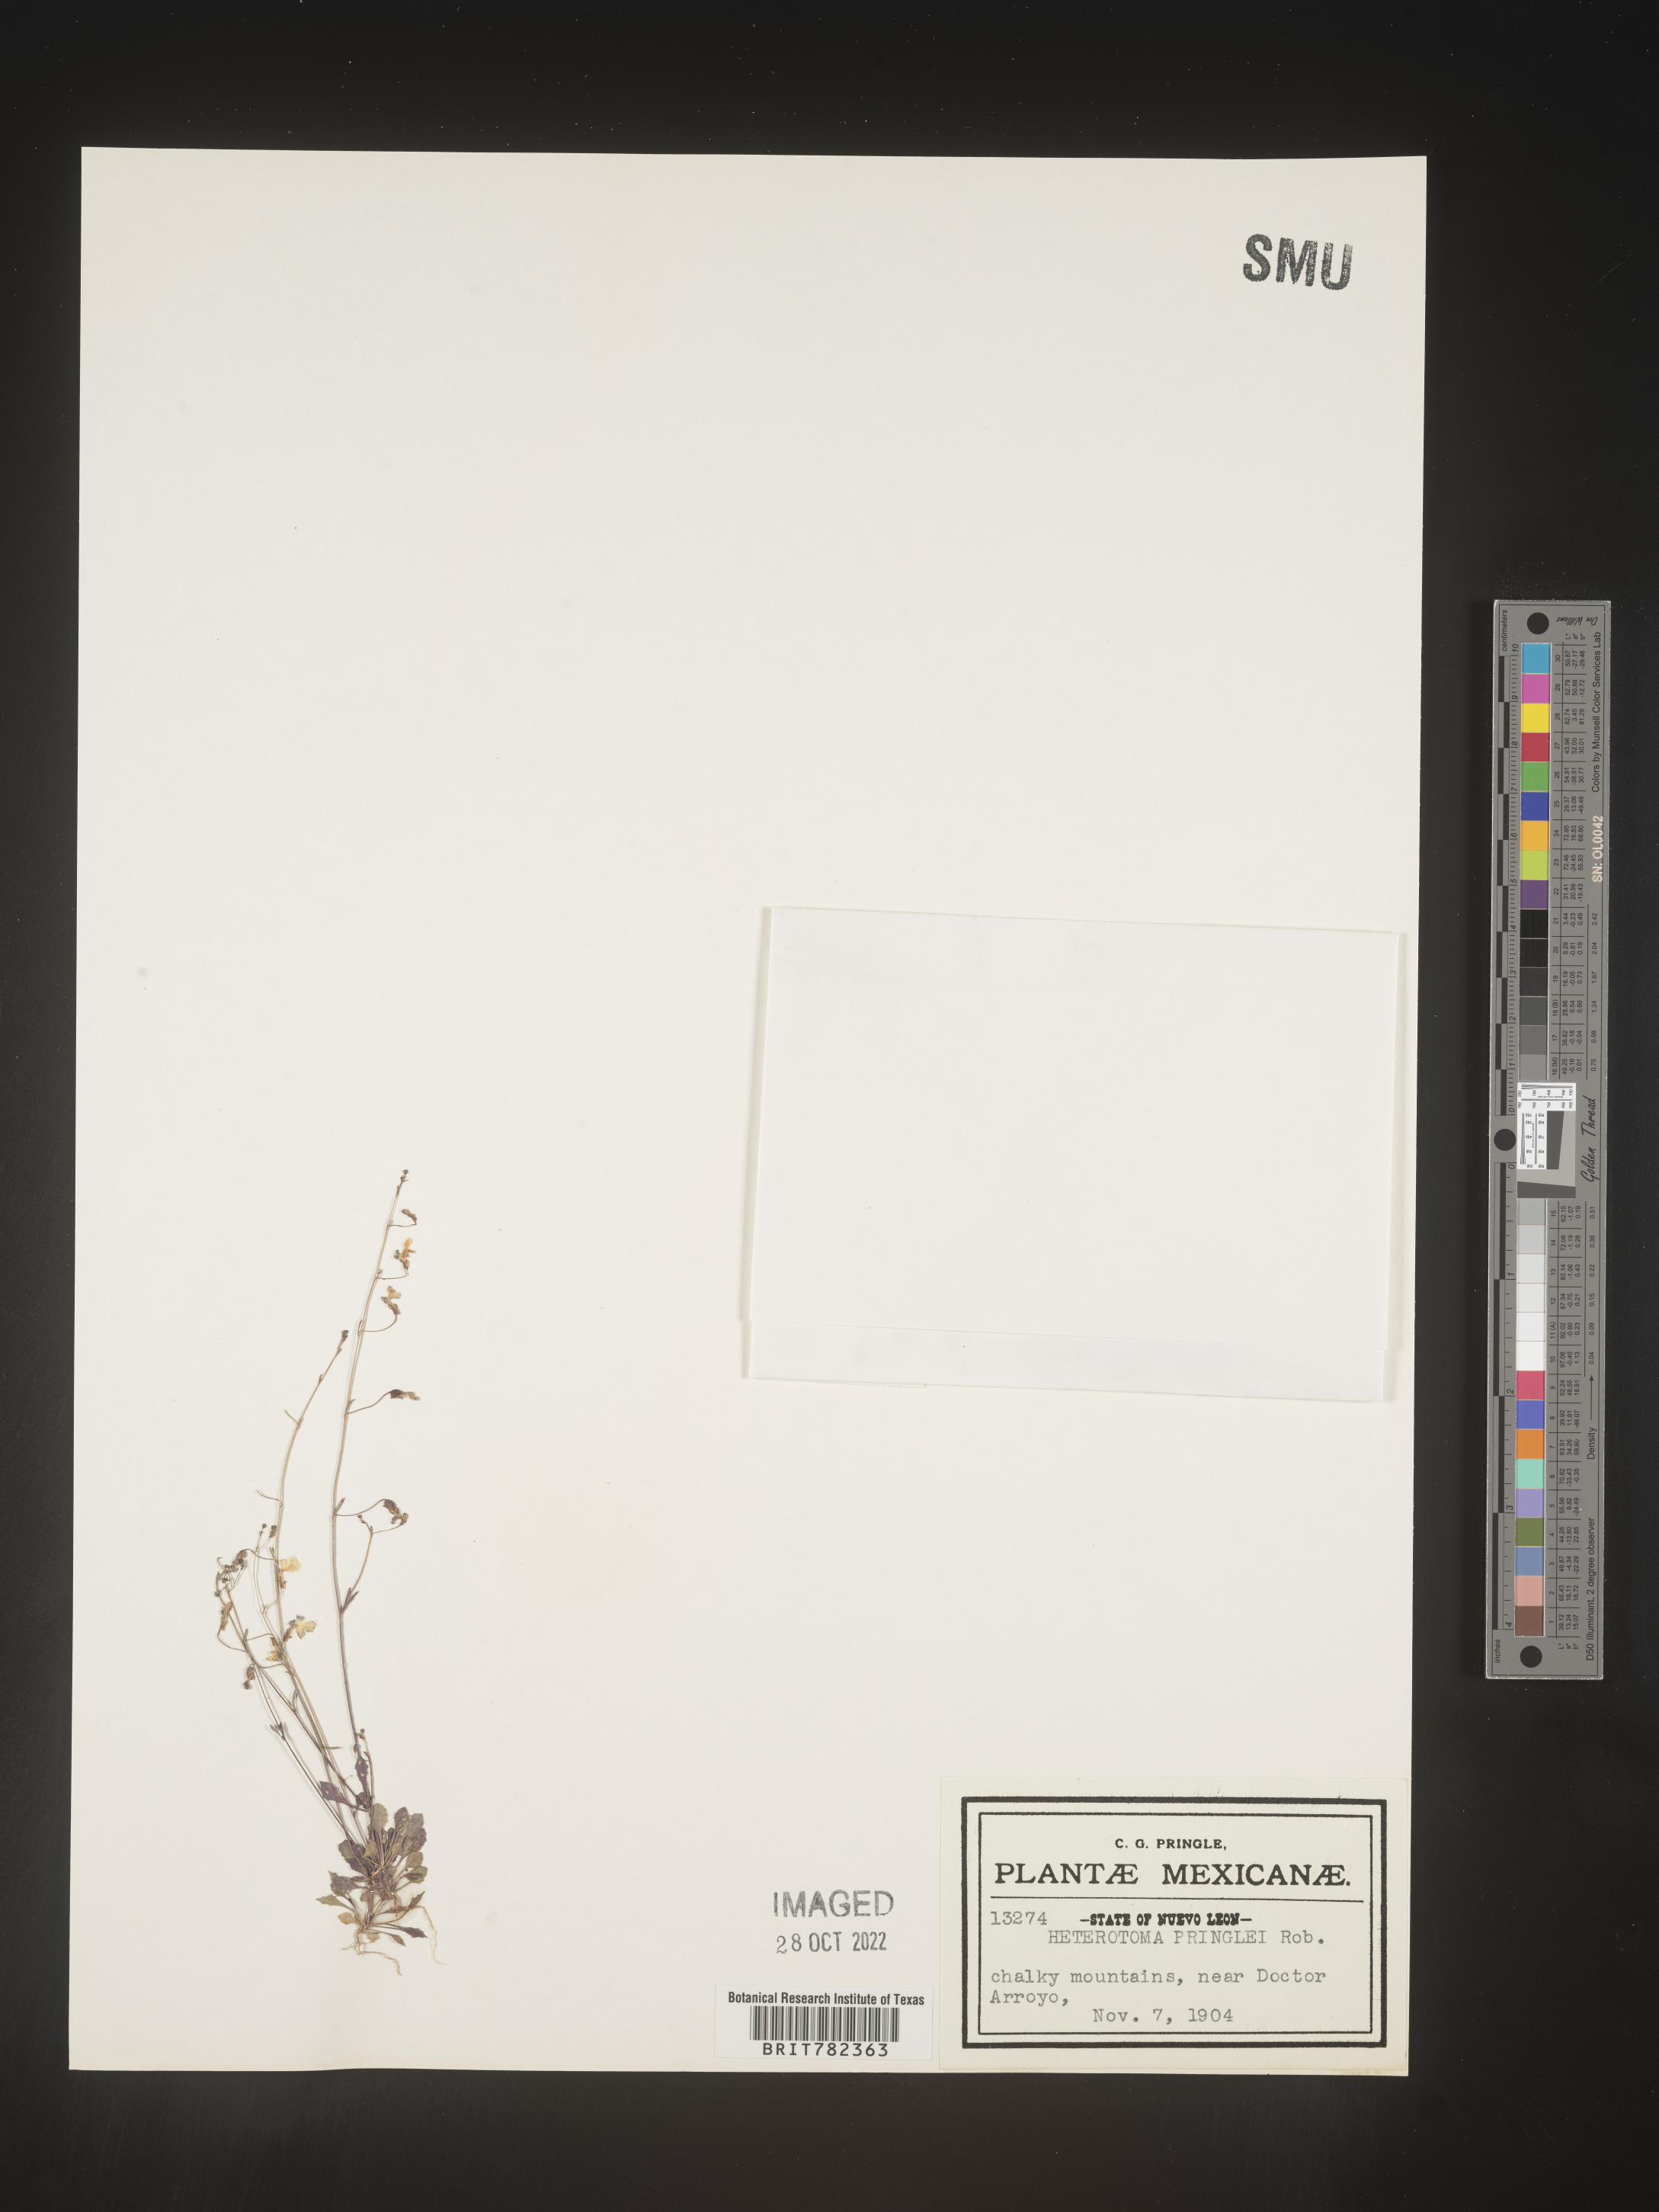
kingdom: Plantae
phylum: Tracheophyta
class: Magnoliopsida
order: Asterales
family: Campanulaceae
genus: Heterotoma
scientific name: Heterotoma
